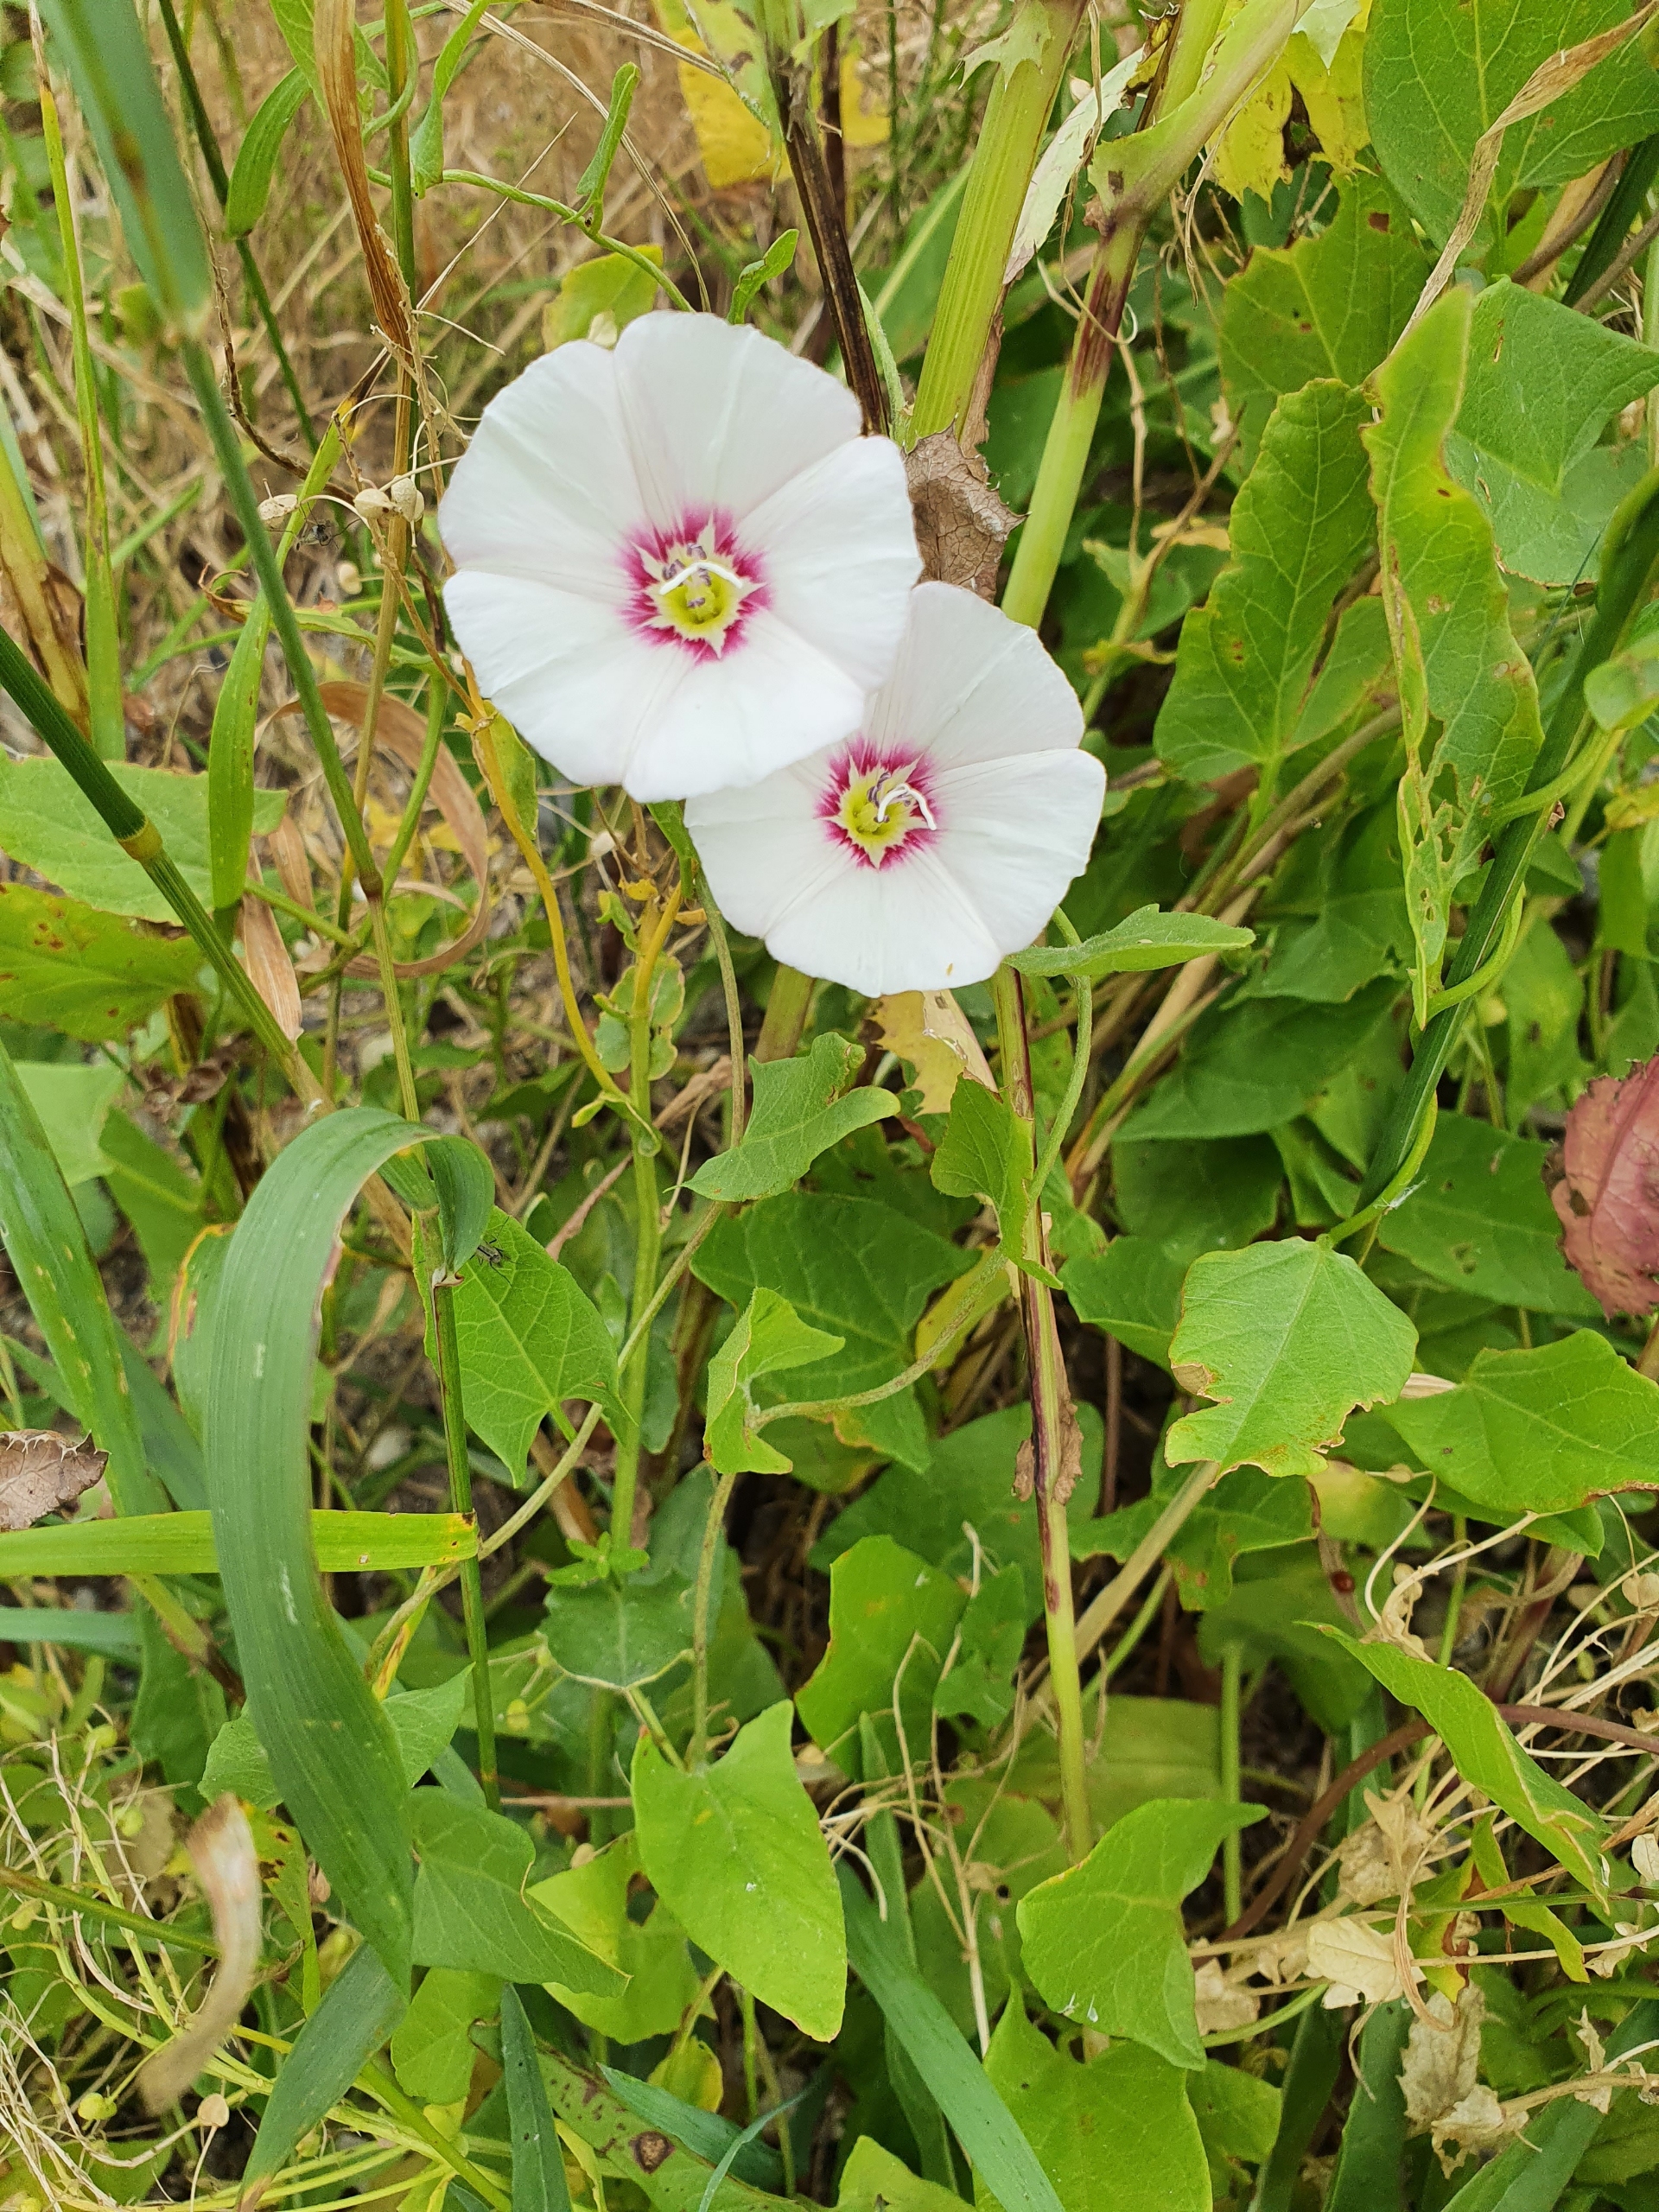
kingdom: Plantae
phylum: Tracheophyta
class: Magnoliopsida
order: Solanales
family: Convolvulaceae
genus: Convolvulus
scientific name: Convolvulus arvensis
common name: Ager-snerle
